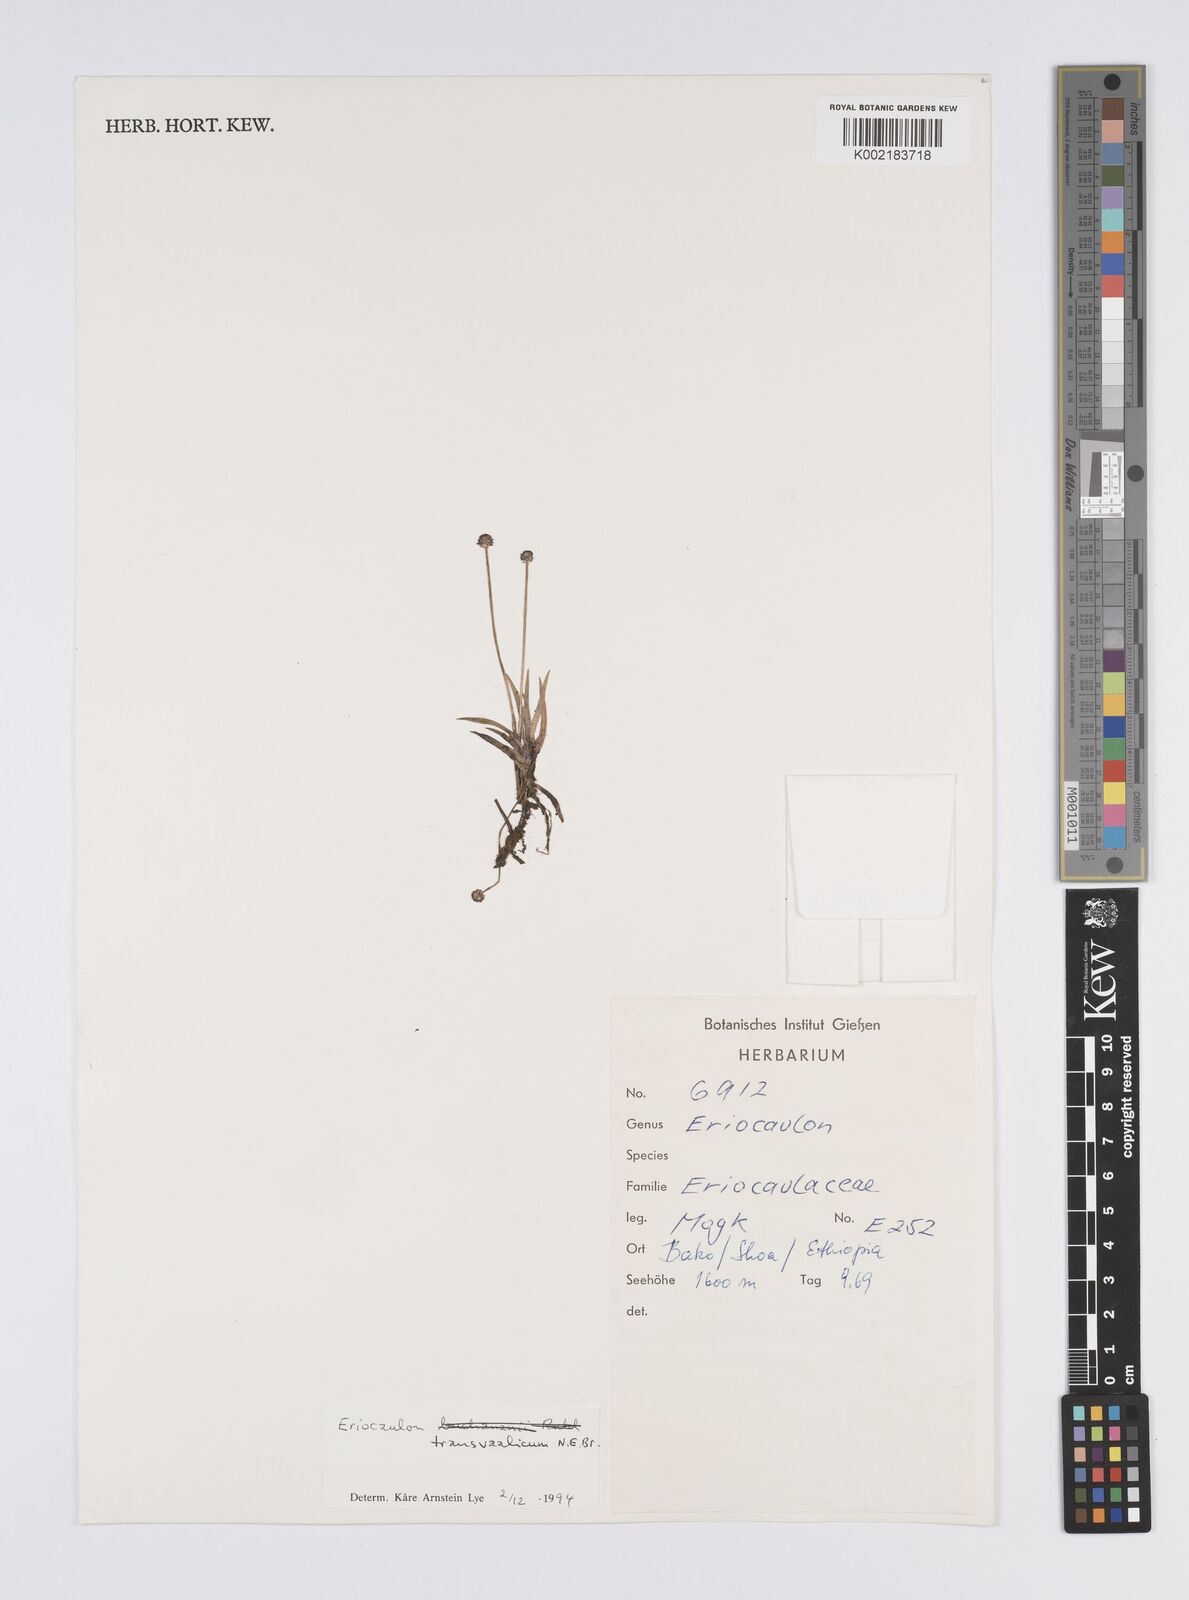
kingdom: Plantae
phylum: Tracheophyta
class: Liliopsida
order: Poales
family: Eriocaulaceae
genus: Eriocaulon
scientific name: Eriocaulon transvaalicum
